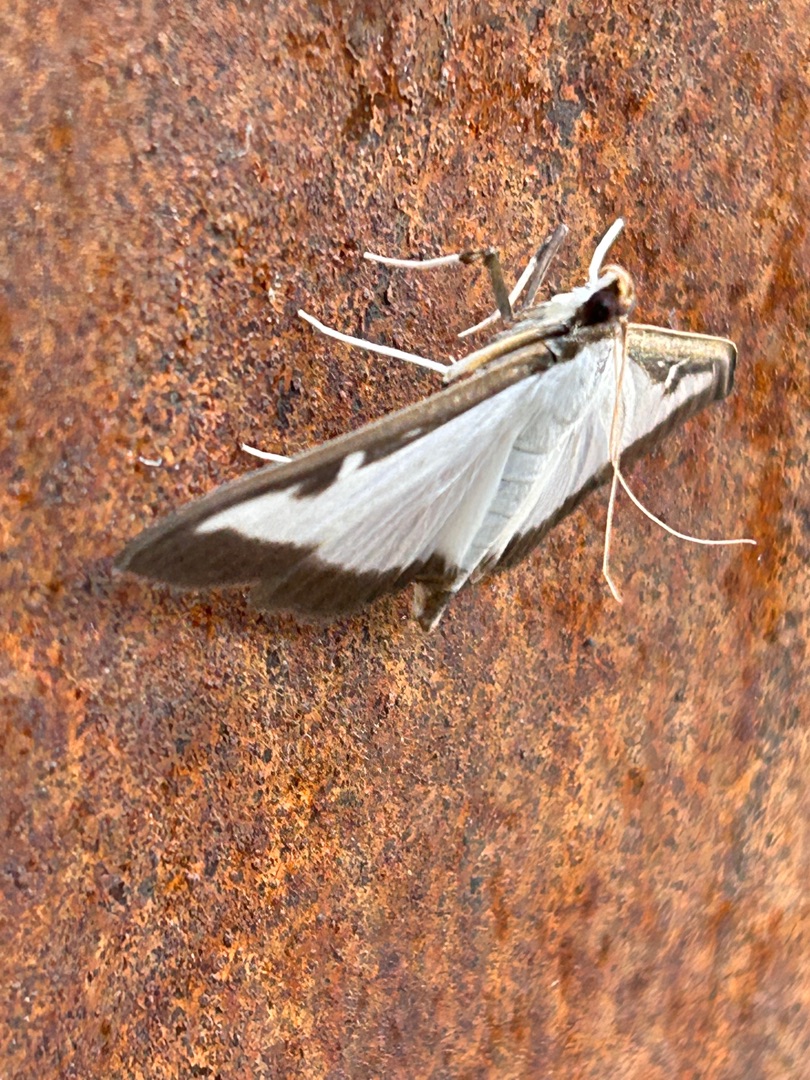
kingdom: Animalia
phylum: Arthropoda
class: Insecta
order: Lepidoptera
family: Crambidae
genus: Cydalima
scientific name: Cydalima perspectalis
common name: Buksbomhalvmøl
